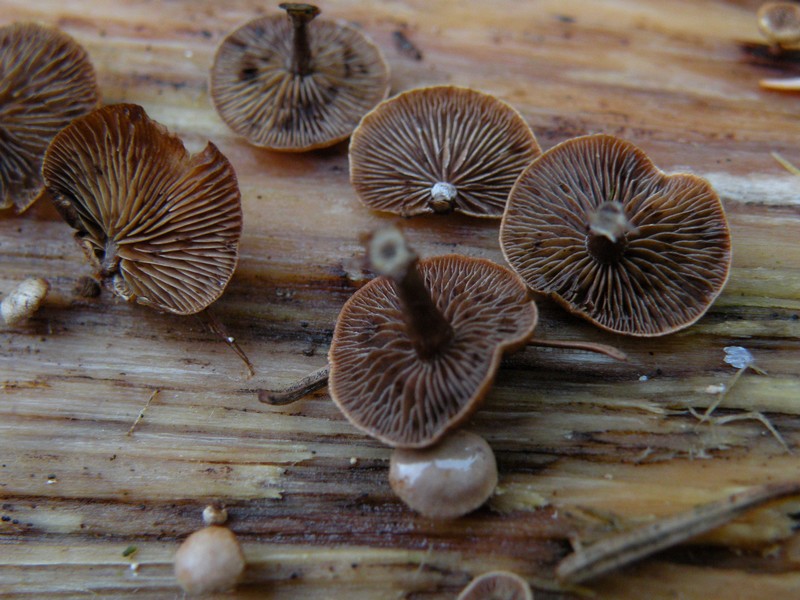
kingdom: Fungi
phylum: Basidiomycota
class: Agaricomycetes
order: Agaricales
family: Strophariaceae
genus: Deconica
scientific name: Deconica horizontalis
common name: ved-stråhat
